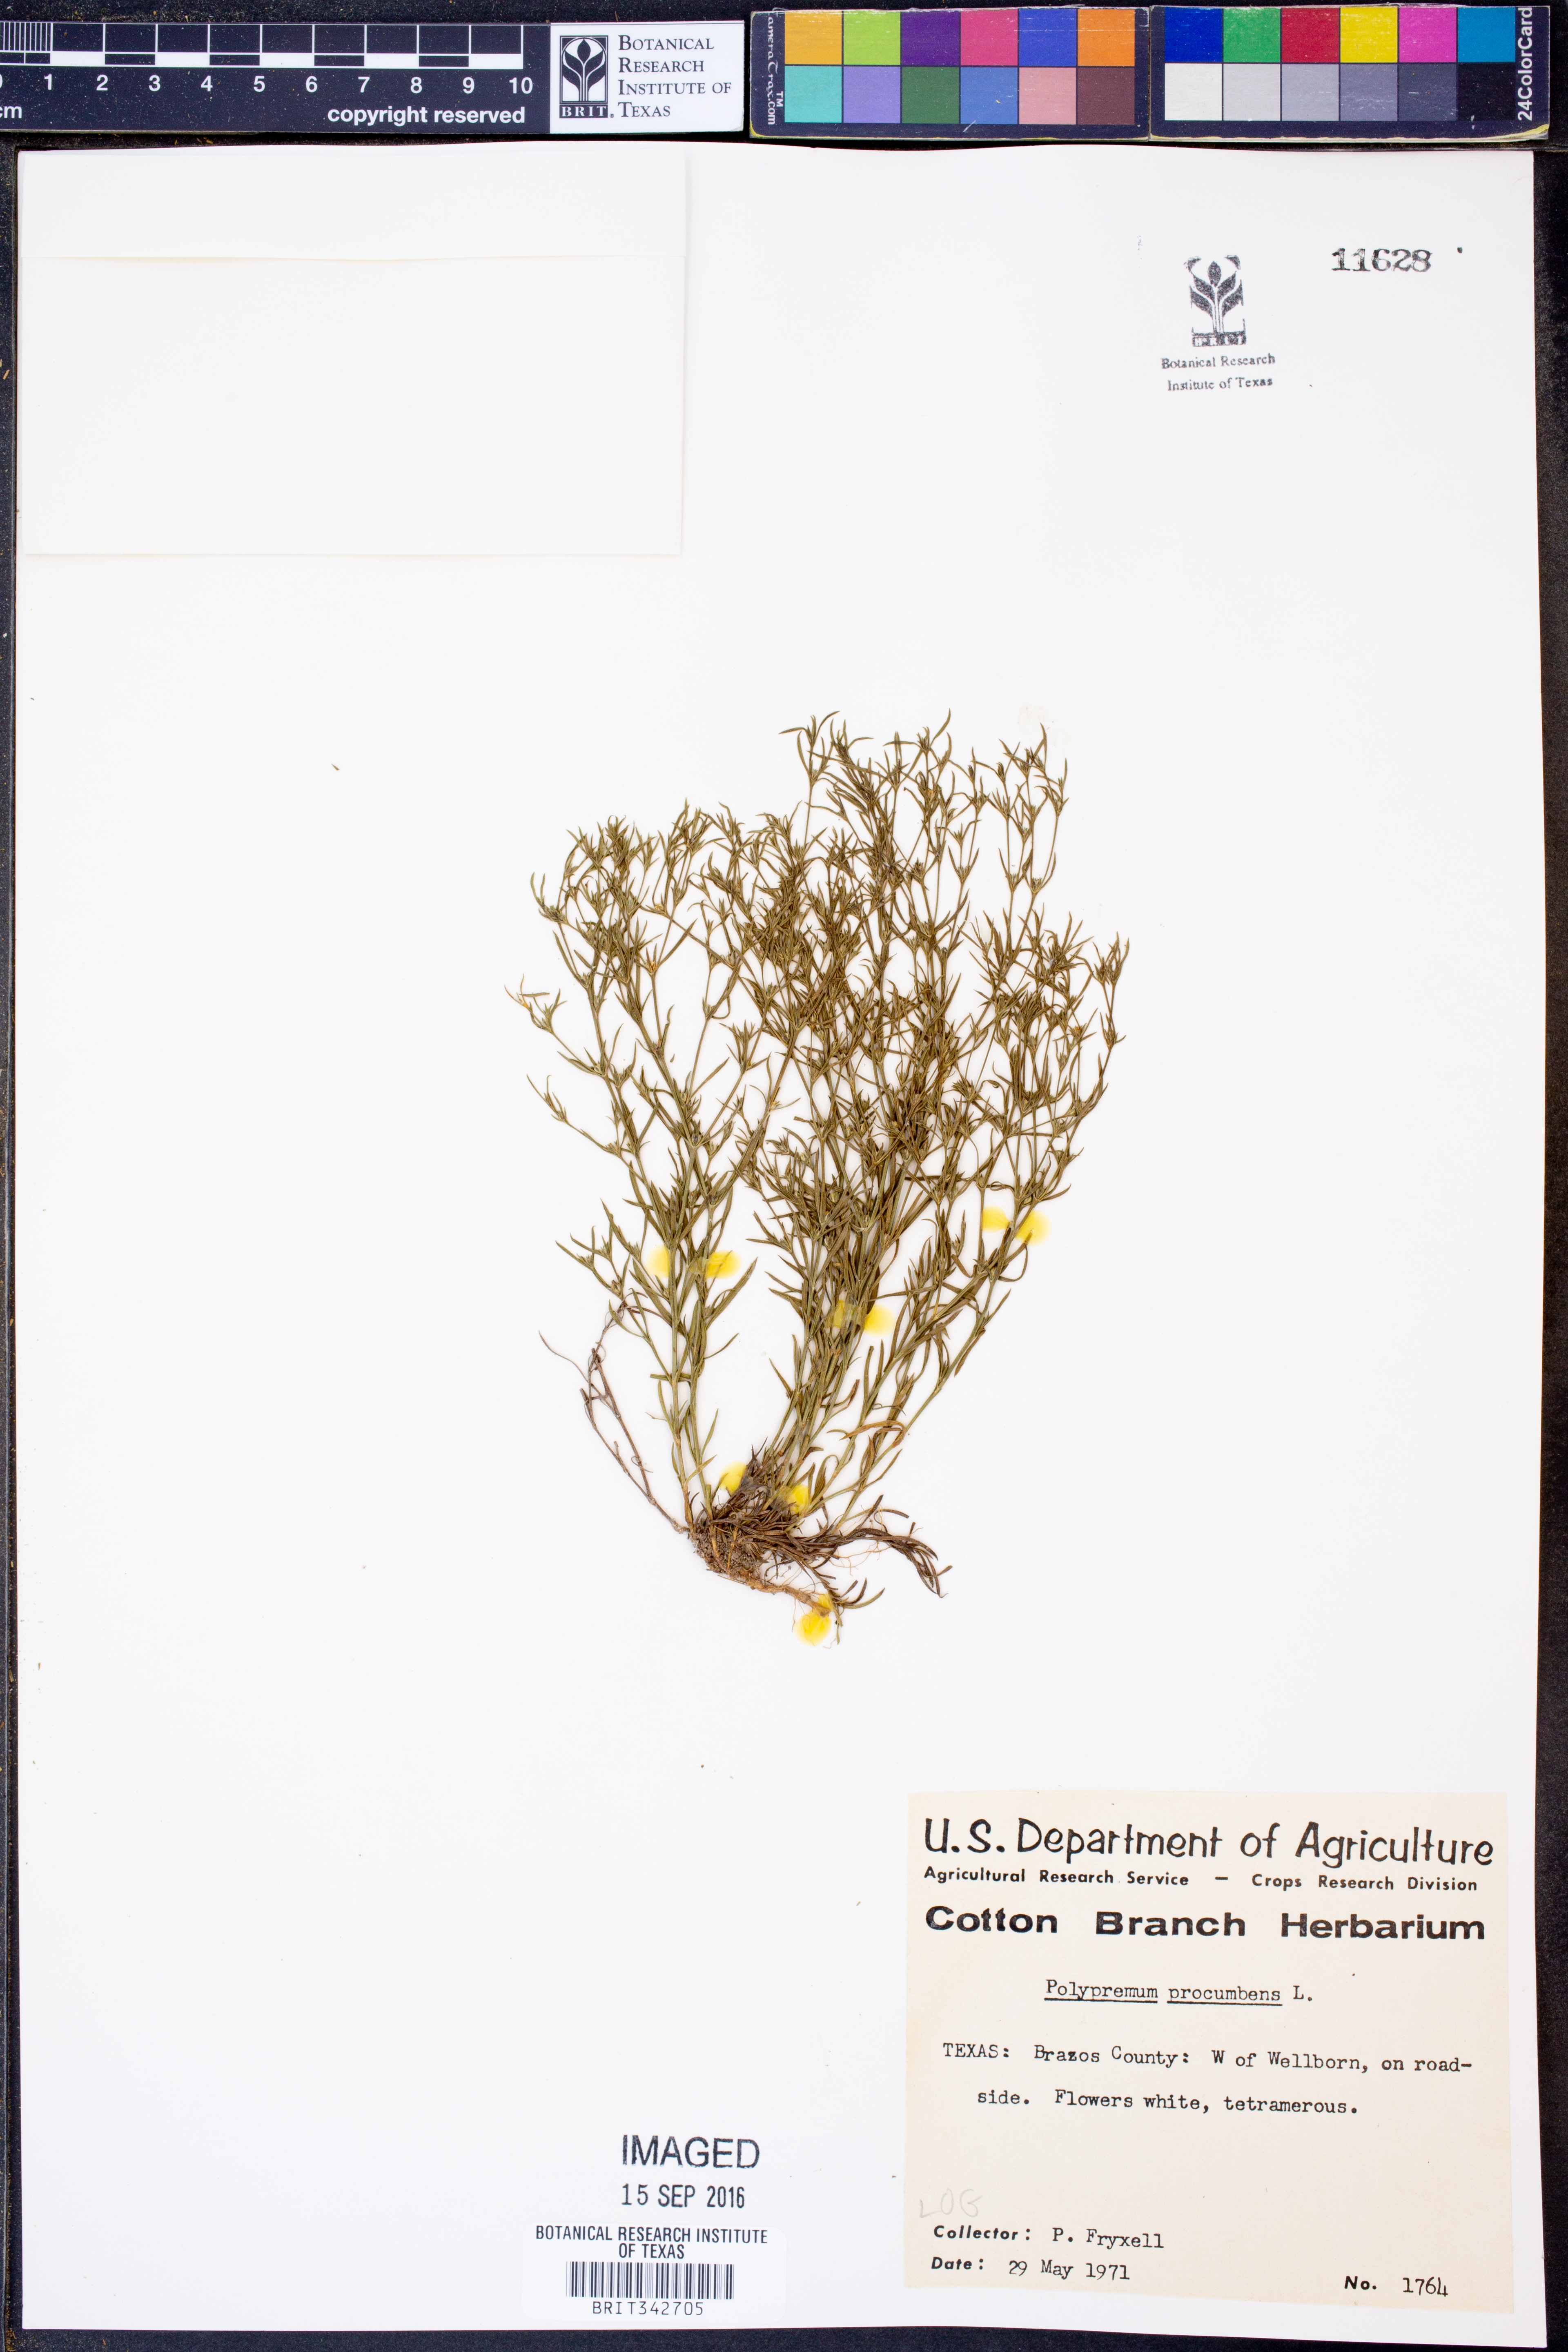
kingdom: Plantae
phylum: Tracheophyta
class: Magnoliopsida
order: Lamiales
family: Tetrachondraceae
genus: Polypremum
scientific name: Polypremum procumbens
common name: Juniper-leaf
